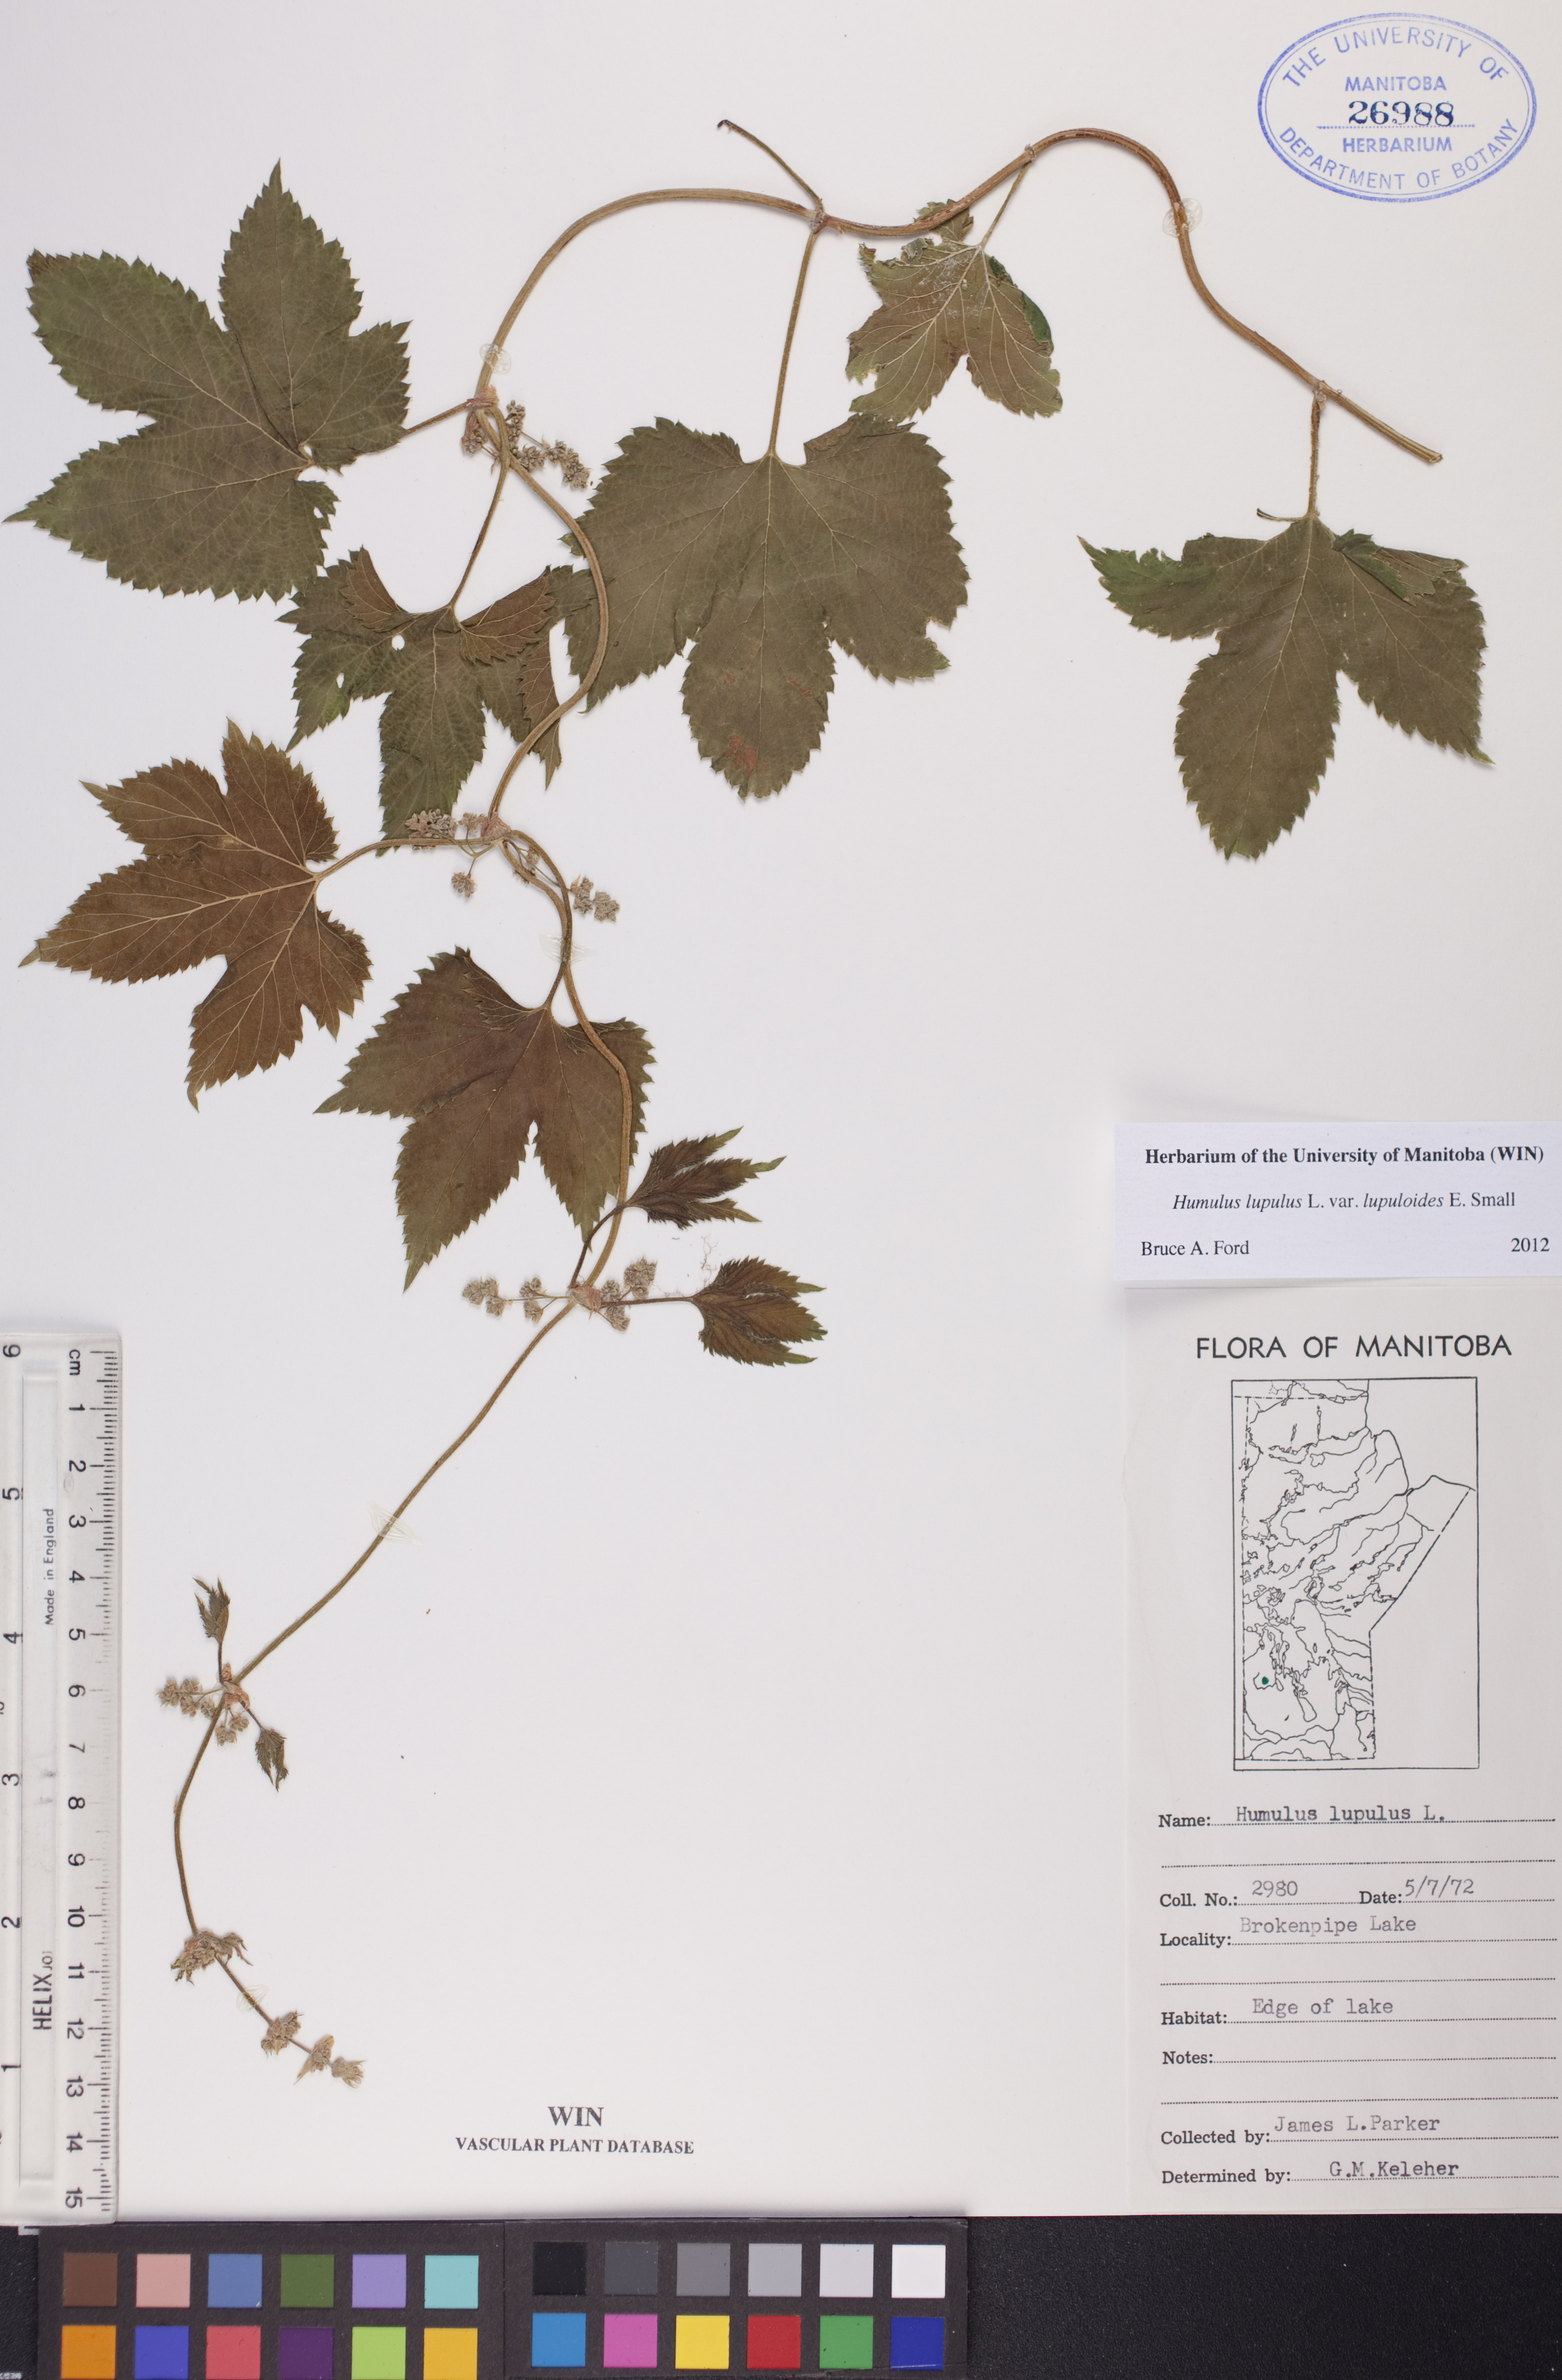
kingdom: Plantae
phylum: Tracheophyta
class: Magnoliopsida
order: Rosales
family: Cannabaceae
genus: Humulus
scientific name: Humulus americanus
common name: American hops
